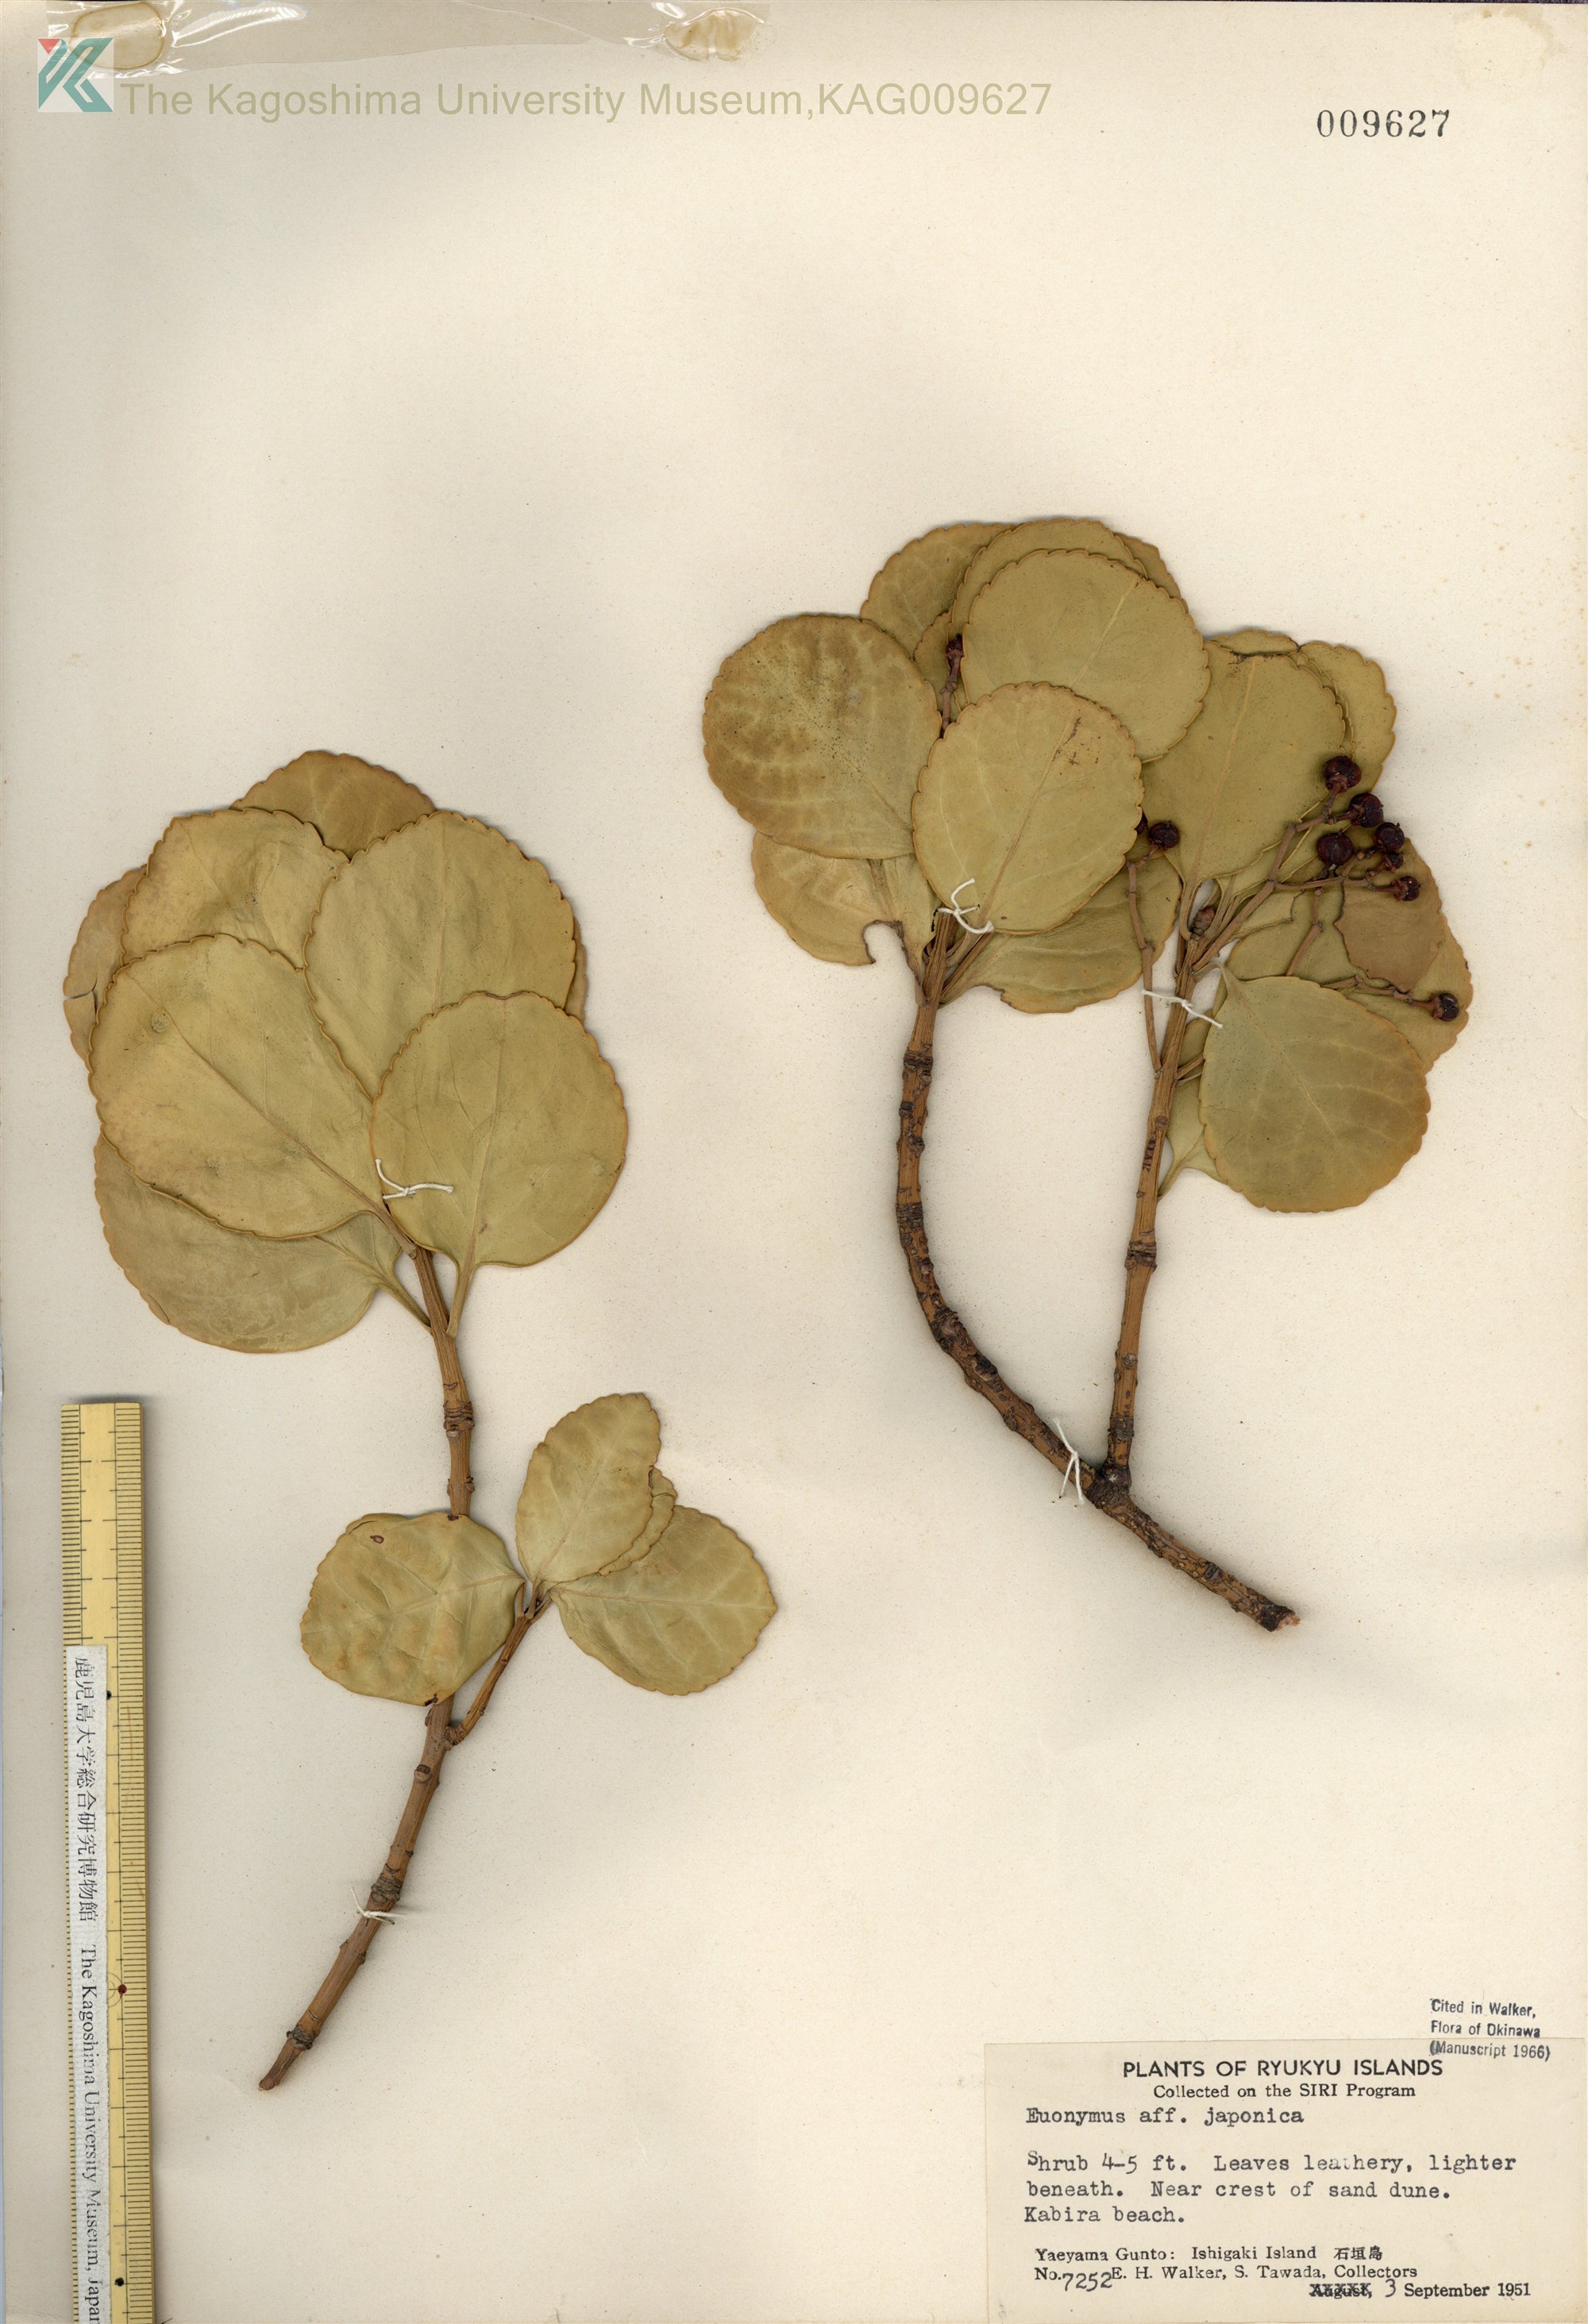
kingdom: Plantae
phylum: Tracheophyta
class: Magnoliopsida
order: Celastrales
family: Celastraceae
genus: Euonymus
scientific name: Euonymus japonicus
